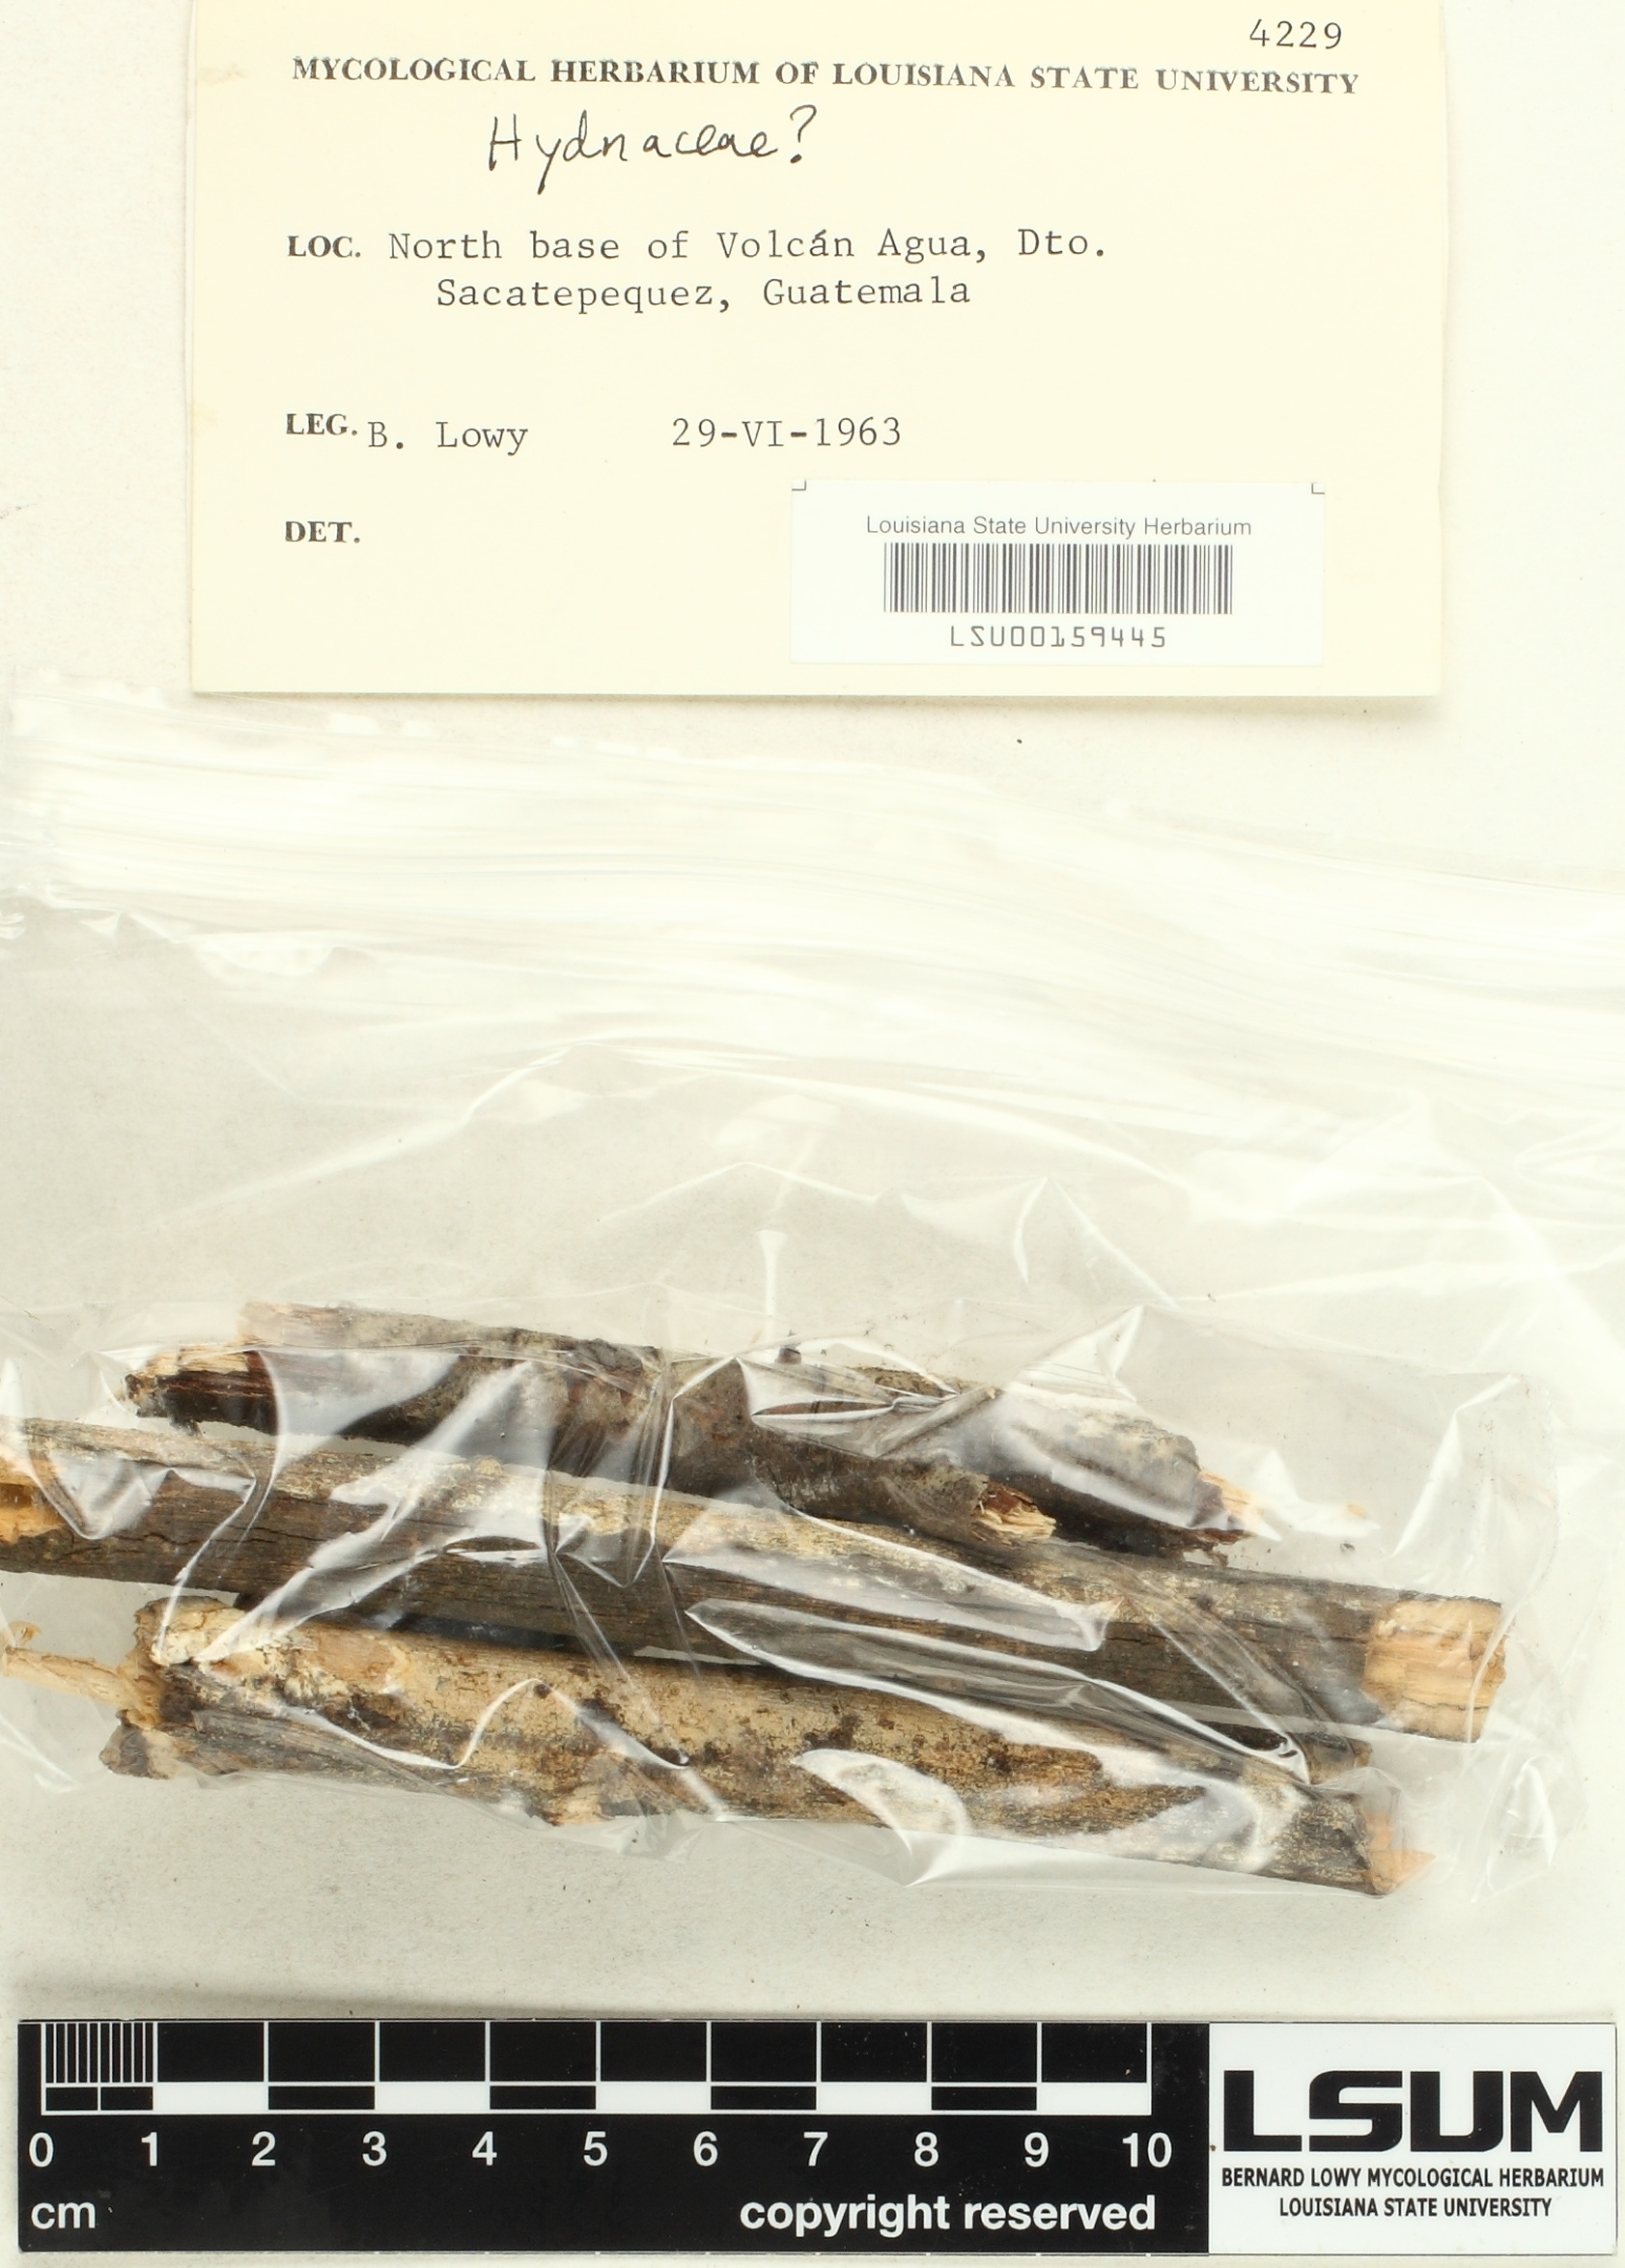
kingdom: Fungi
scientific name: Fungi
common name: Fungi
